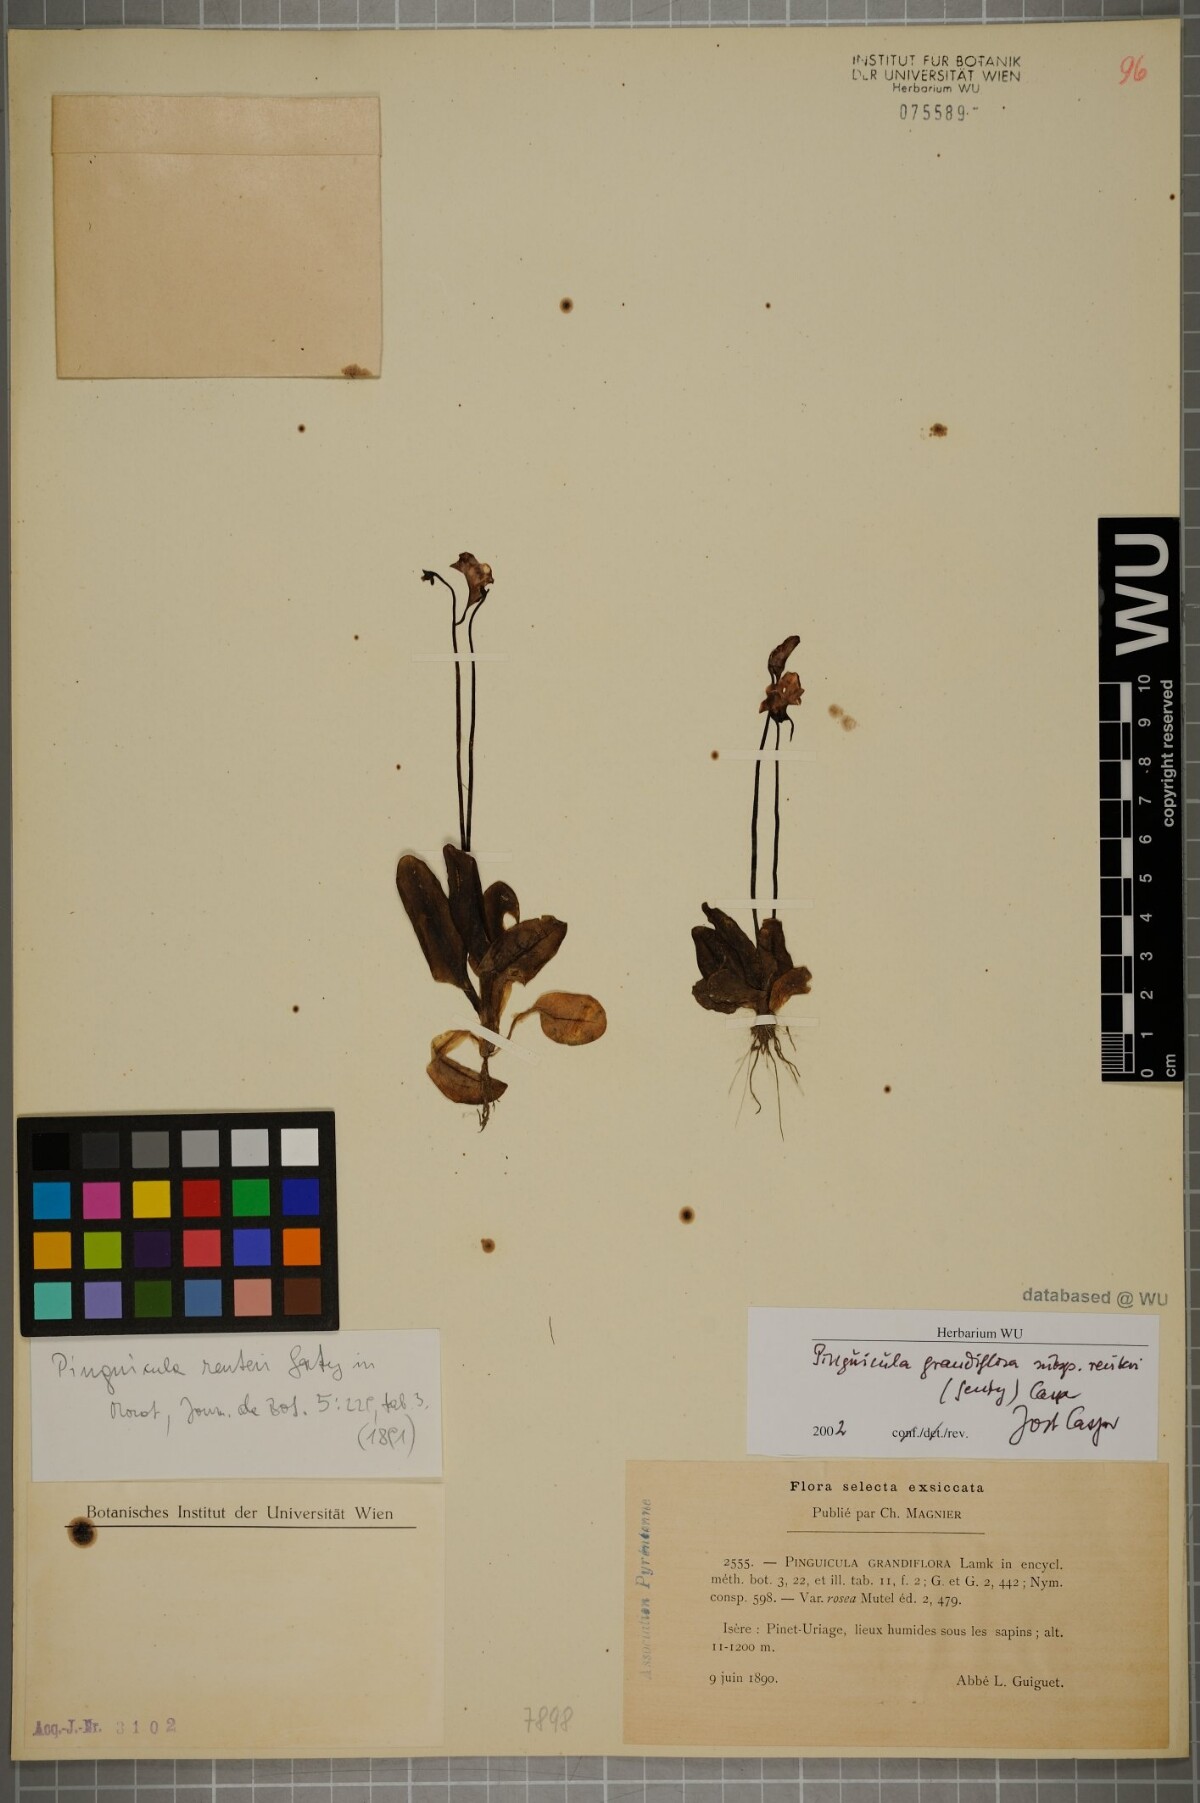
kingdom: Plantae
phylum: Tracheophyta
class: Magnoliopsida
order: Lamiales
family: Lentibulariaceae
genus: Pinguicula
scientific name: Pinguicula grandiflora
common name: Large-flowered butterwort
